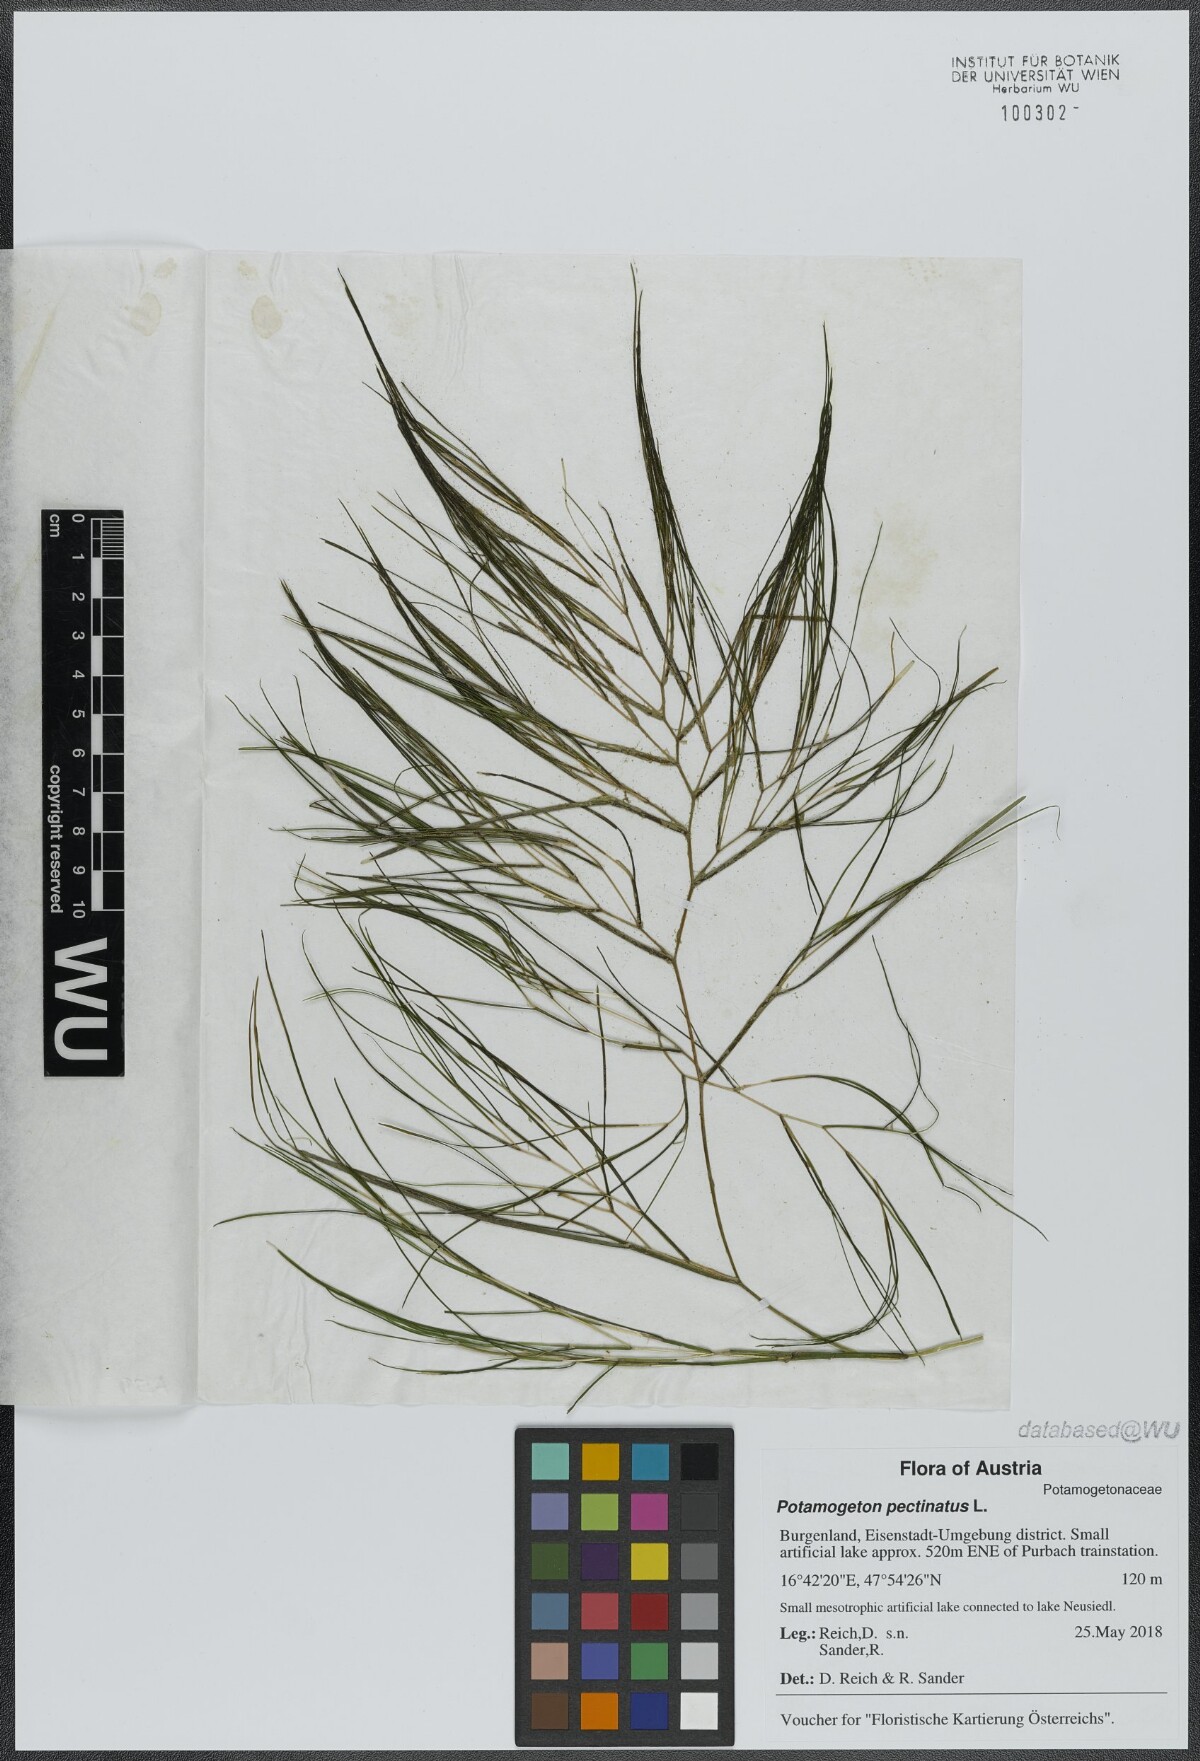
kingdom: Plantae
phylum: Tracheophyta
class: Liliopsida
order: Alismatales
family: Potamogetonaceae
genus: Stuckenia
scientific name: Stuckenia pectinata
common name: Sago pondweed
